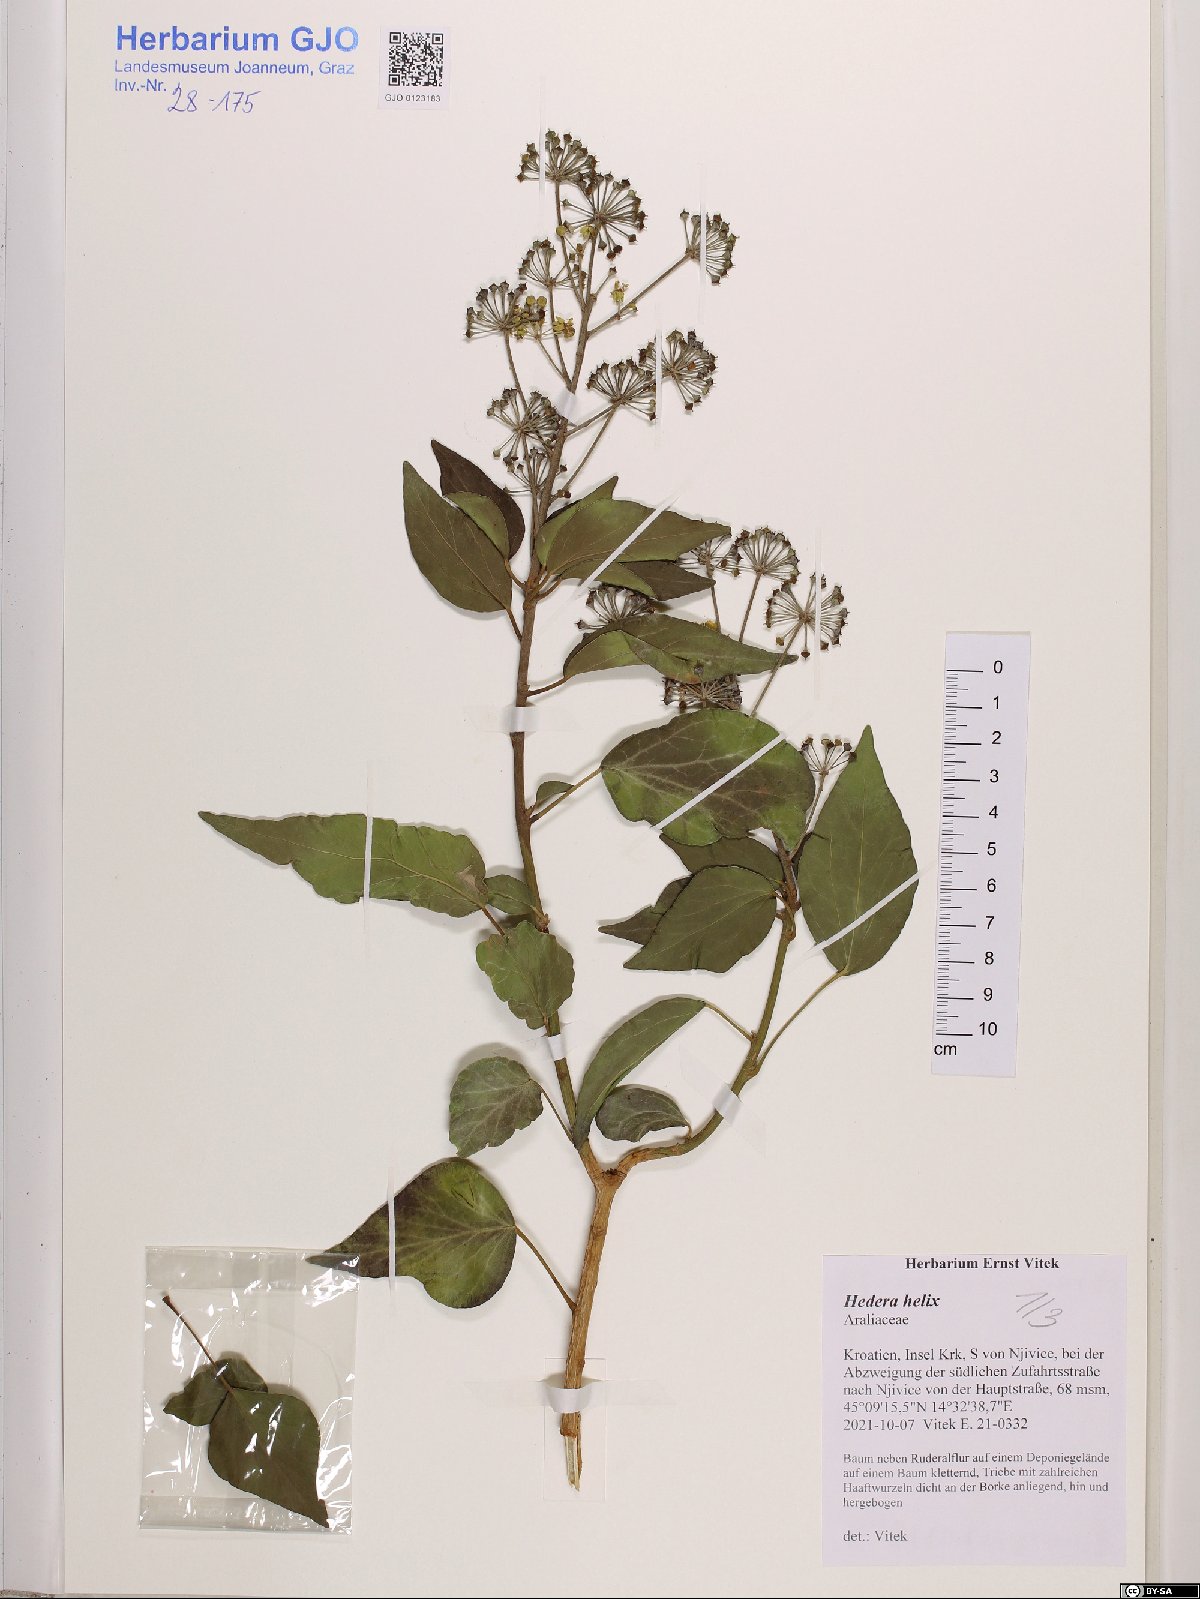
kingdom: Plantae
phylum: Tracheophyta
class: Magnoliopsida
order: Apiales
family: Araliaceae
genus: Hedera
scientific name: Hedera helix
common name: Ivy
